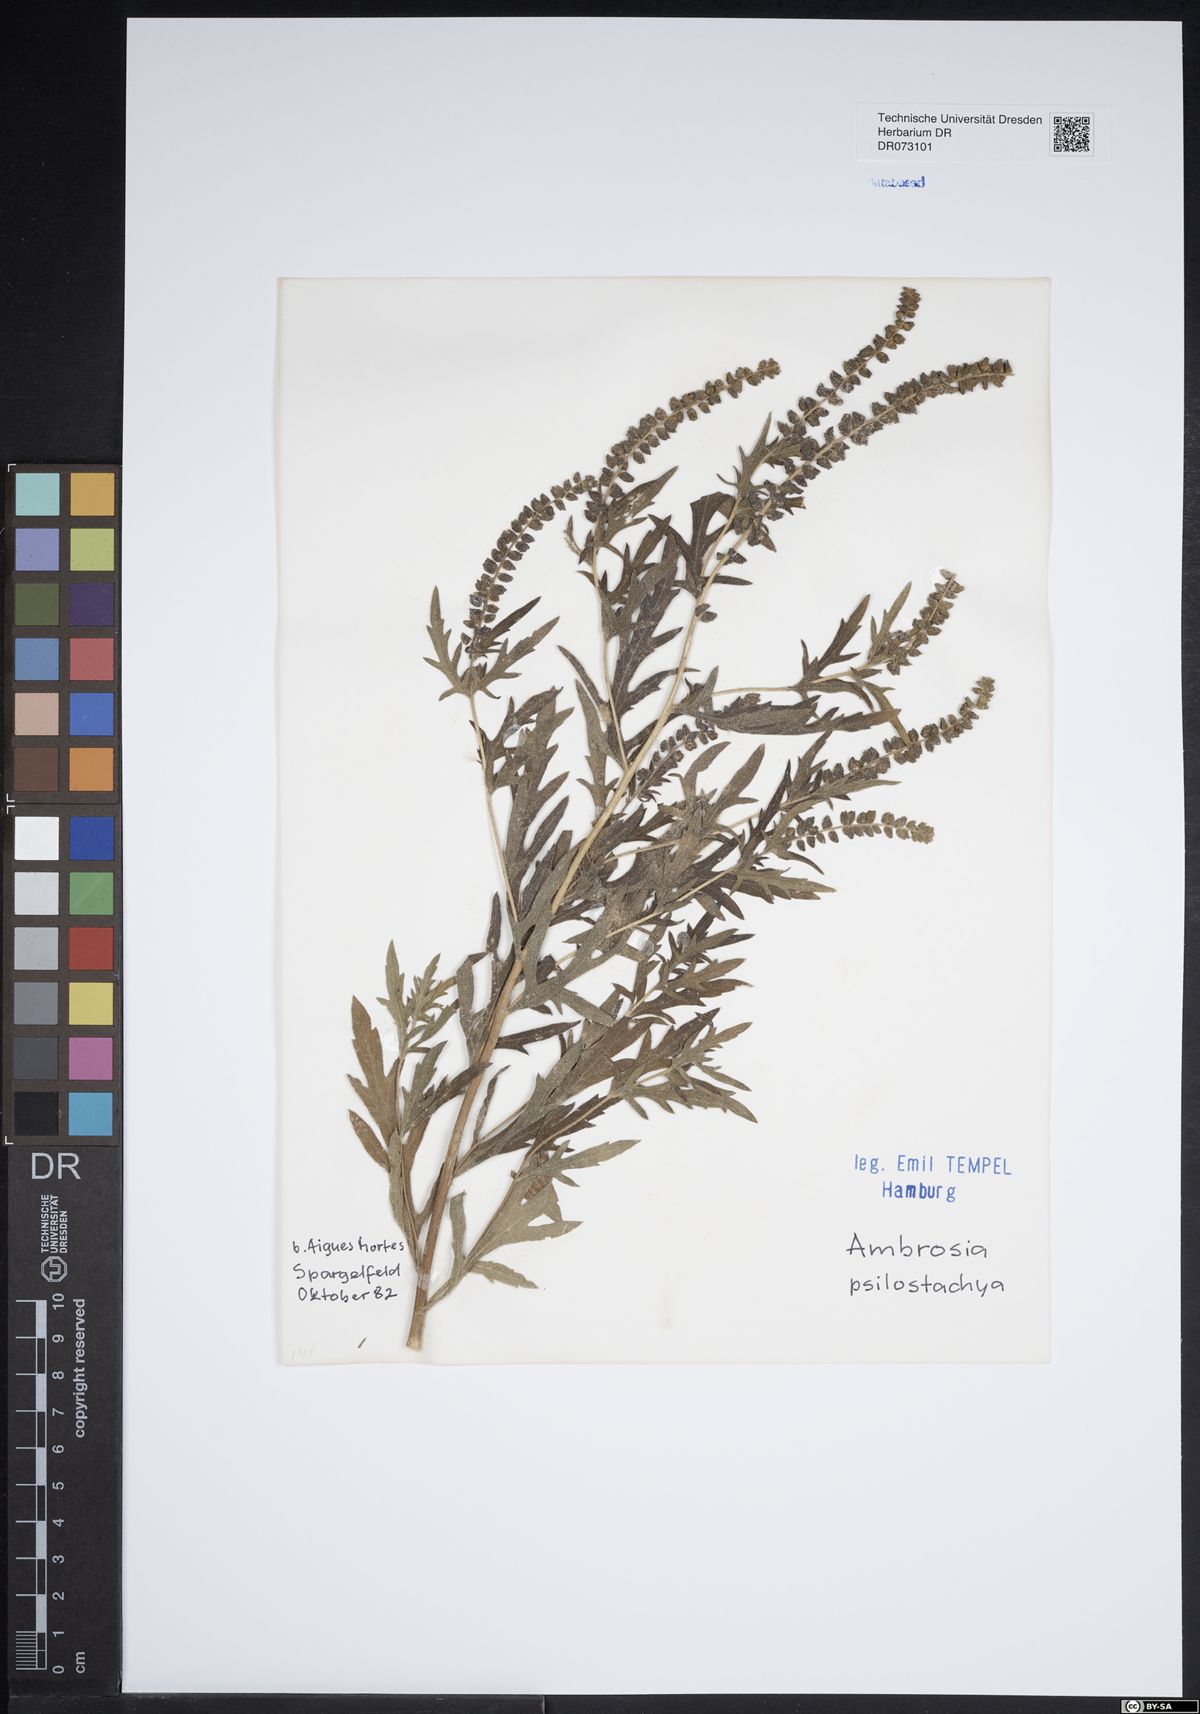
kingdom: Plantae
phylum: Tracheophyta
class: Magnoliopsida
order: Asterales
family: Asteraceae
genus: Limbarda
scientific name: Limbarda crithmoides
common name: Golden samphire
